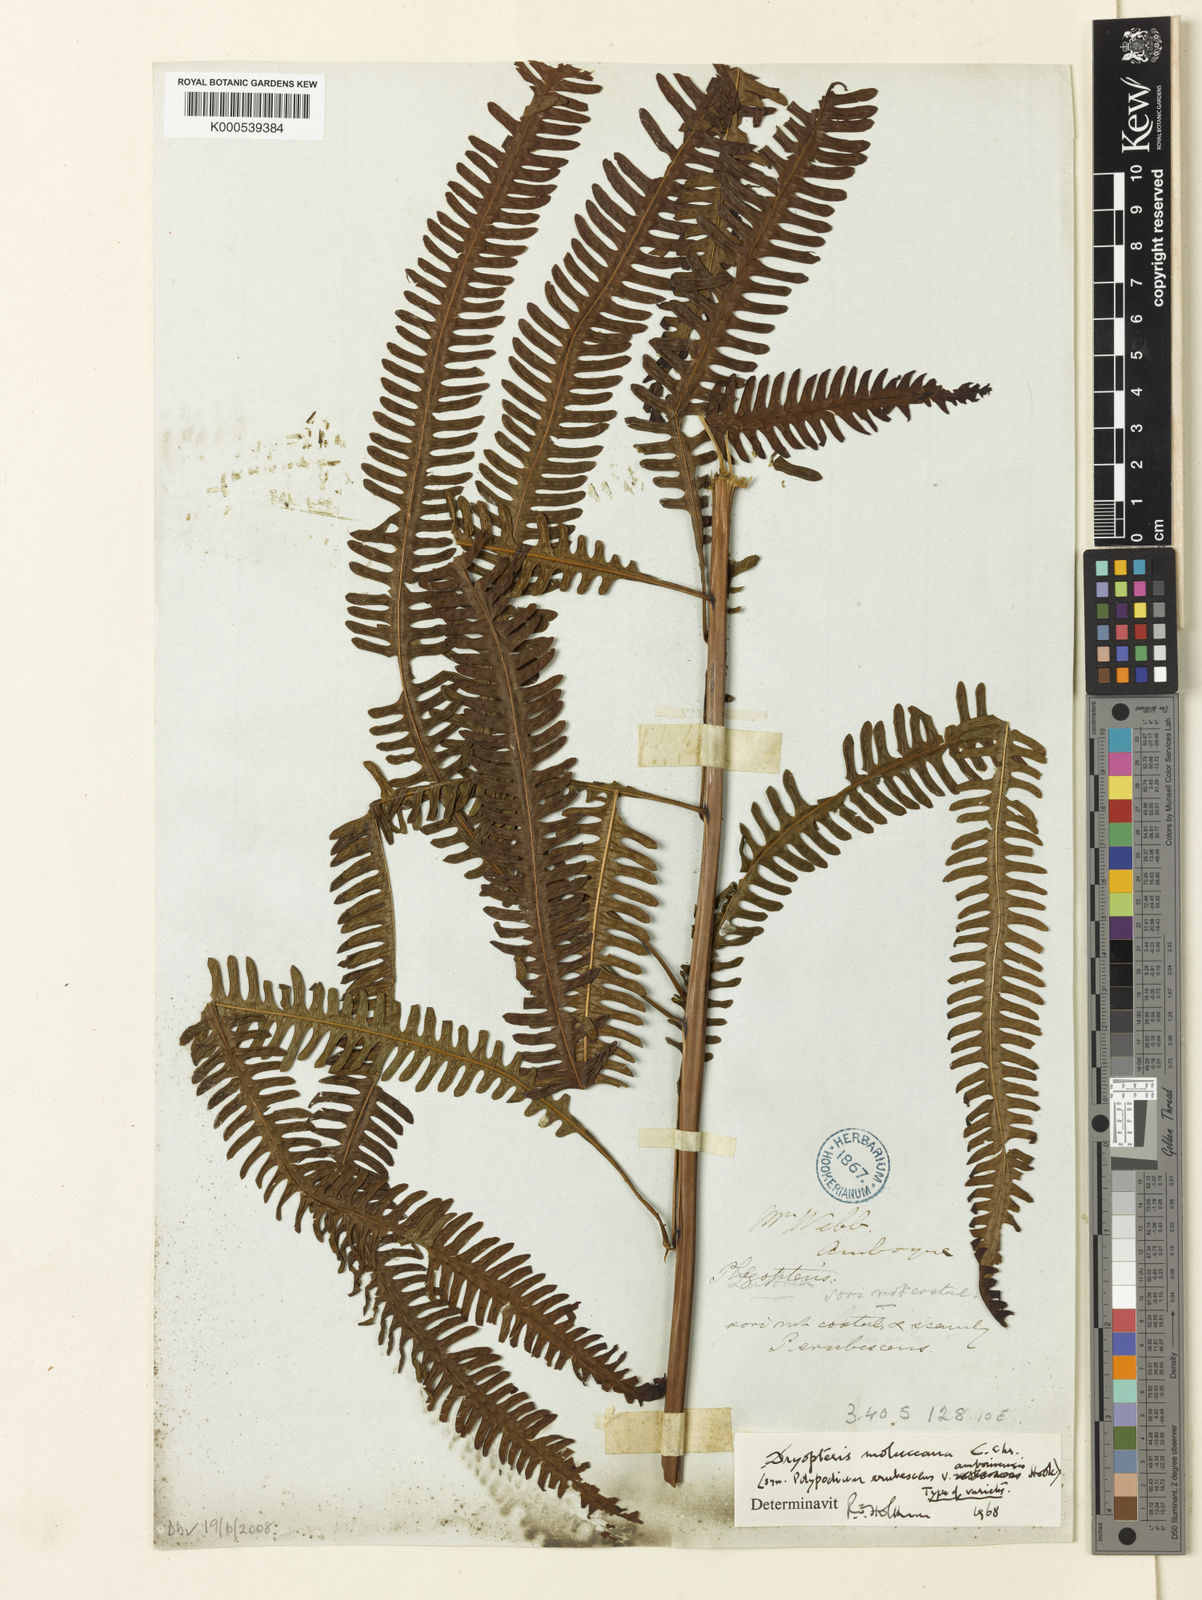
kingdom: Plantae
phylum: Tracheophyta
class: Polypodiopsida
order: Polypodiales
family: Thelypteridaceae
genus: Mesopteris
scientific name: Mesopteris ceramica
